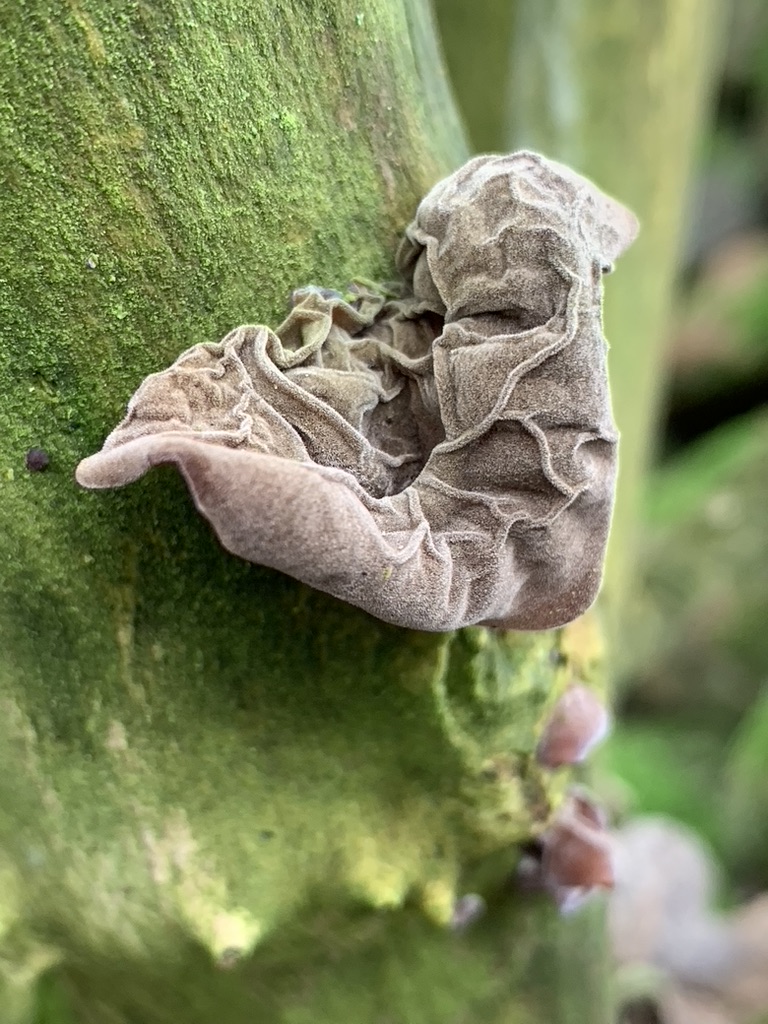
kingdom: Fungi
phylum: Basidiomycota
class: Agaricomycetes
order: Auriculariales
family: Auriculariaceae
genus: Auricularia
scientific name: Auricularia auricula-judae
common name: almindelig judasøre
